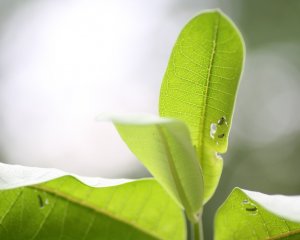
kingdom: Animalia
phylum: Arthropoda
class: Insecta
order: Lepidoptera
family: Nymphalidae
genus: Danaus
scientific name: Danaus plexippus
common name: Monarch
